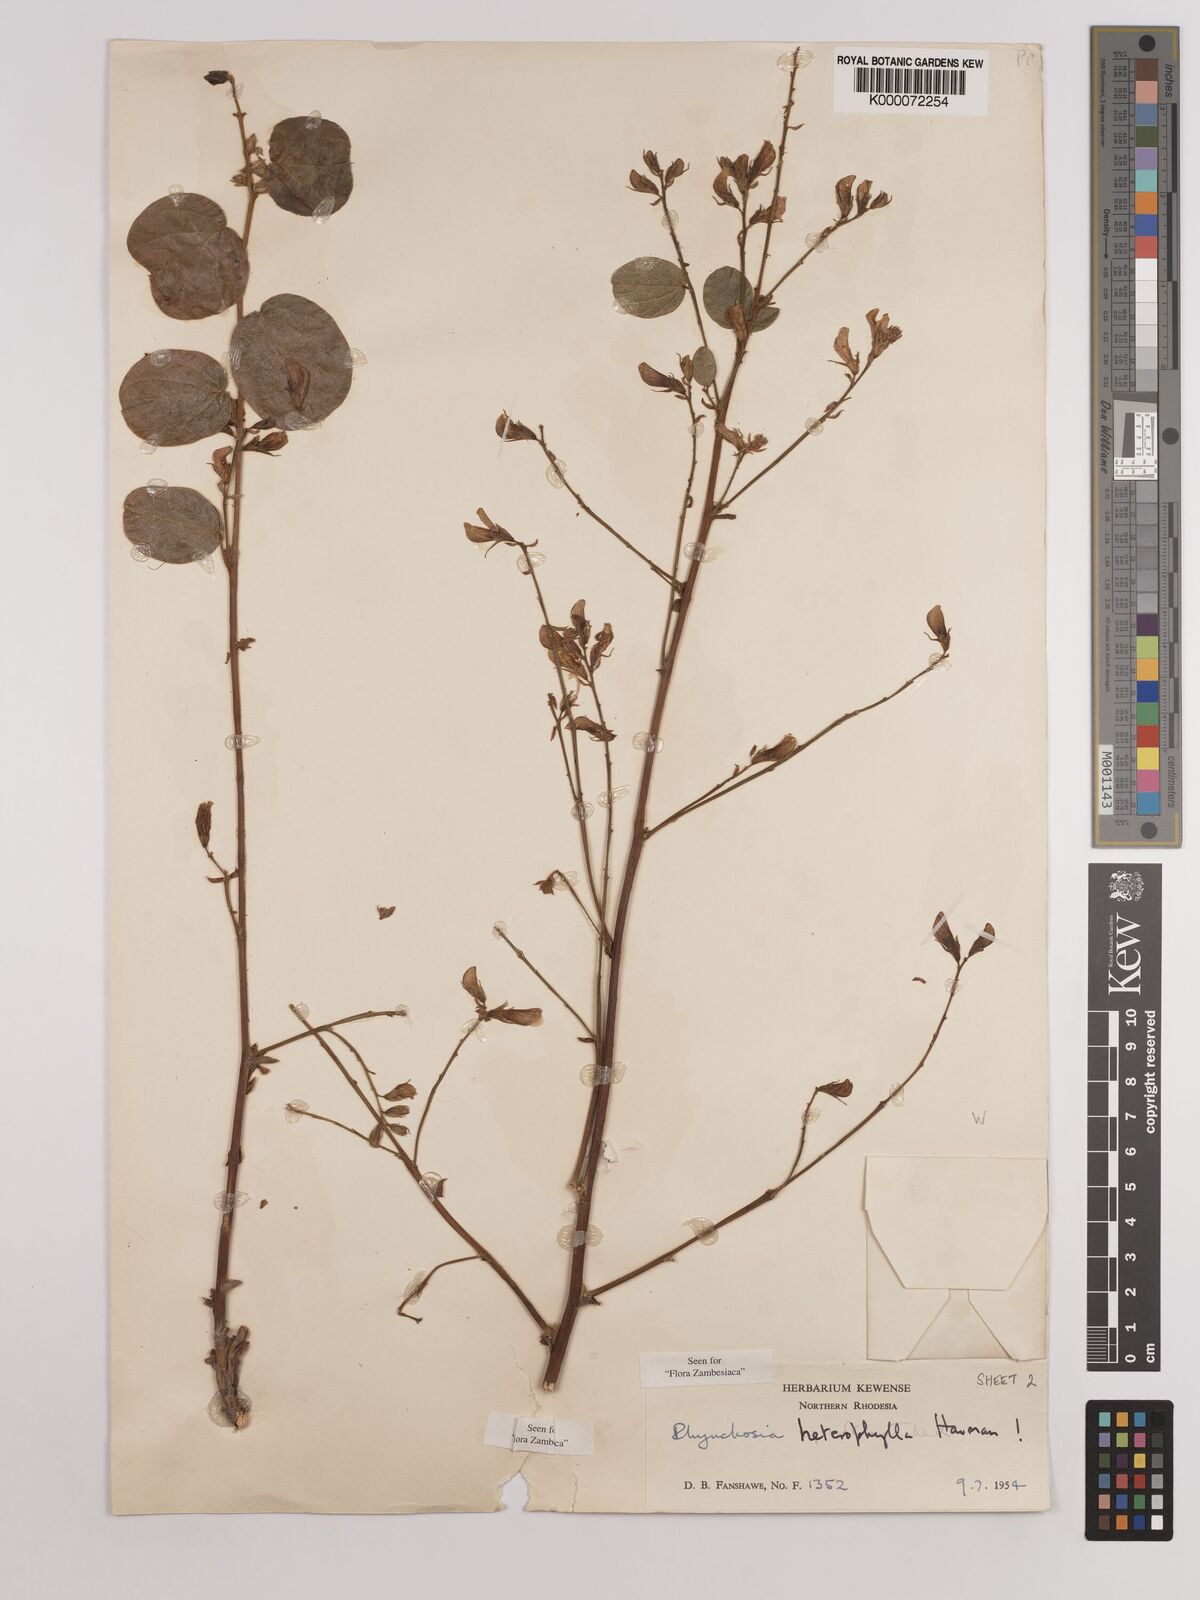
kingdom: Plantae
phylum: Tracheophyta
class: Magnoliopsida
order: Fabales
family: Fabaceae
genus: Rhynchosia
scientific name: Rhynchosia heterophylla
